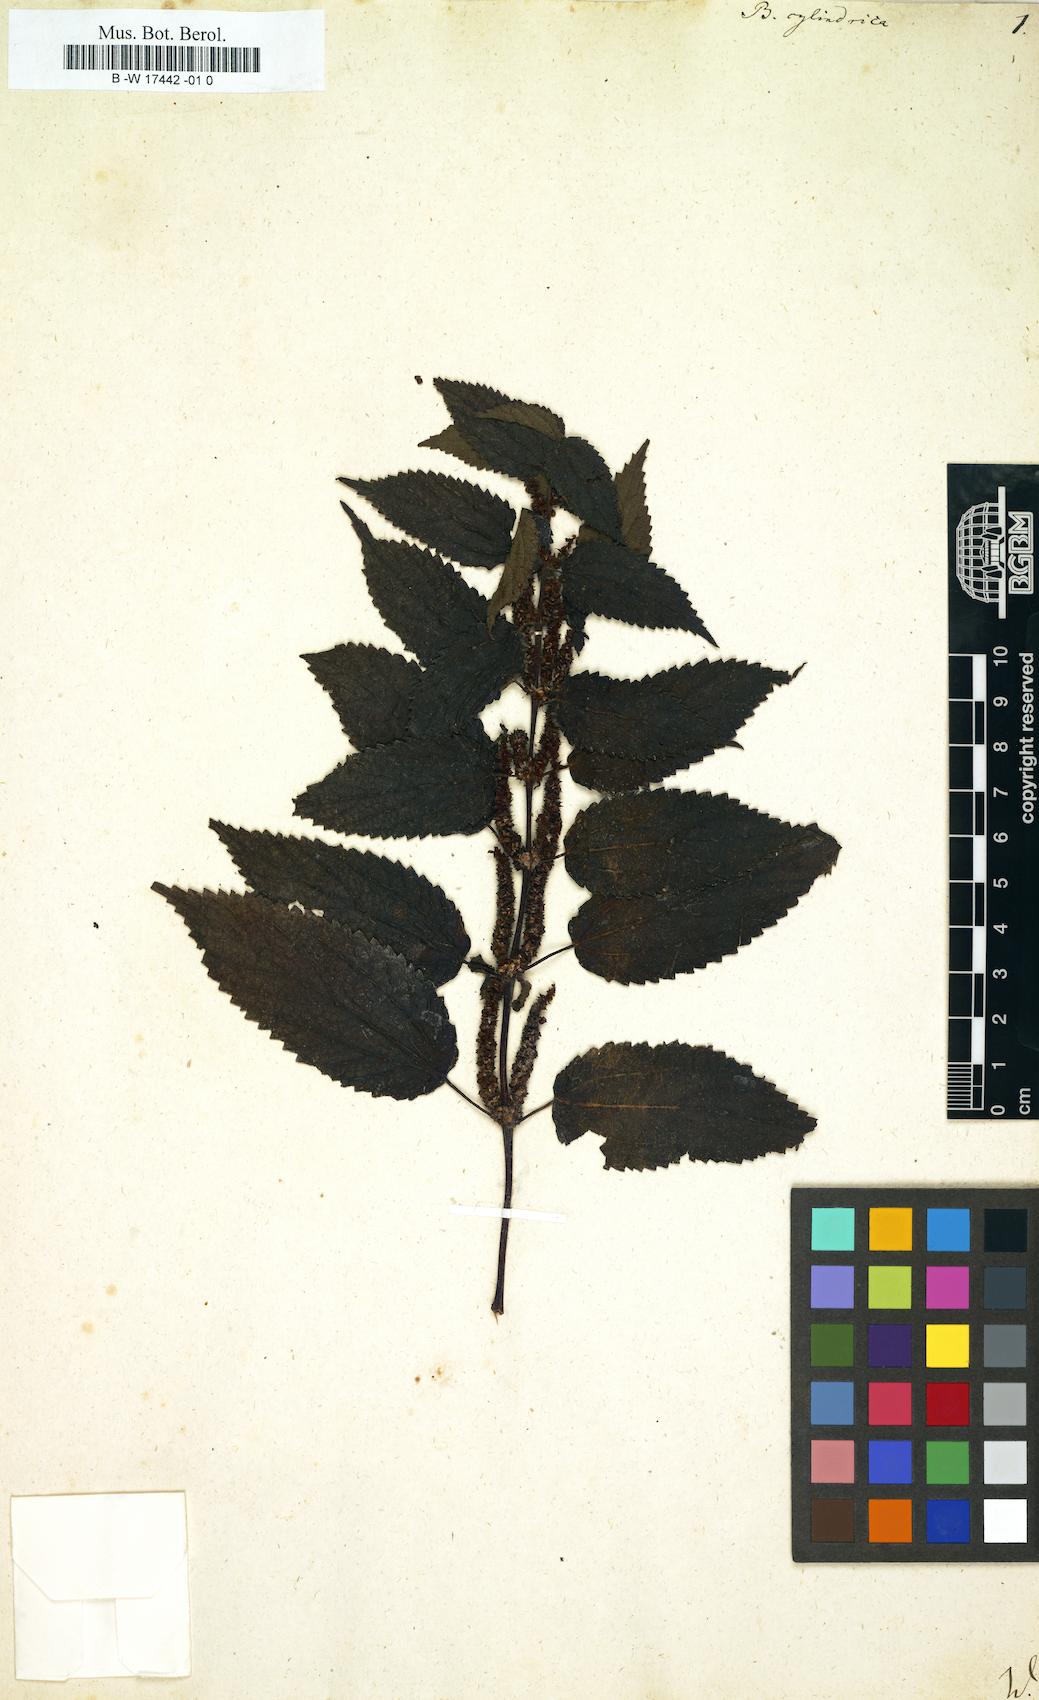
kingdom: Plantae
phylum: Tracheophyta
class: Magnoliopsida
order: Rosales
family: Urticaceae
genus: Boehmeria
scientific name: Boehmeria cylindrica
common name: Bog-hemp
